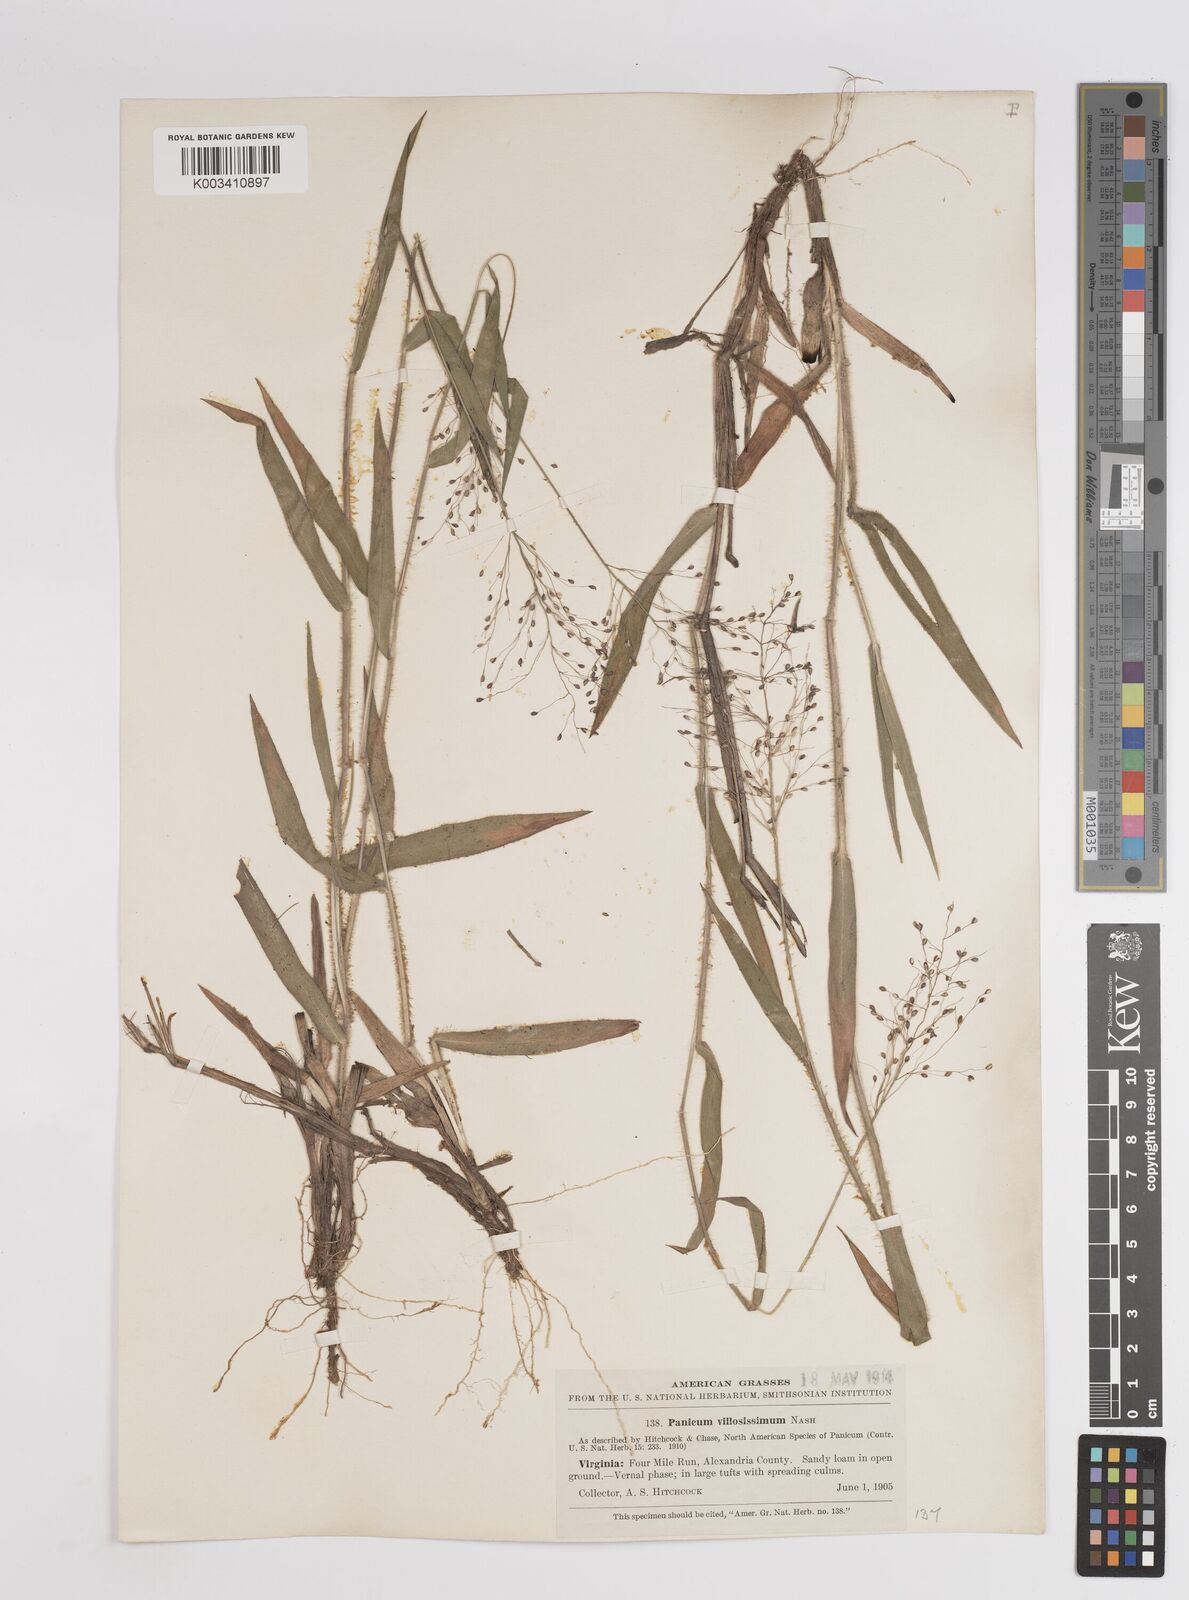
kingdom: Plantae
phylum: Tracheophyta
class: Liliopsida
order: Poales
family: Poaceae
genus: Dichanthelium
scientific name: Dichanthelium villosissimum
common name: White-haired panicgrass
